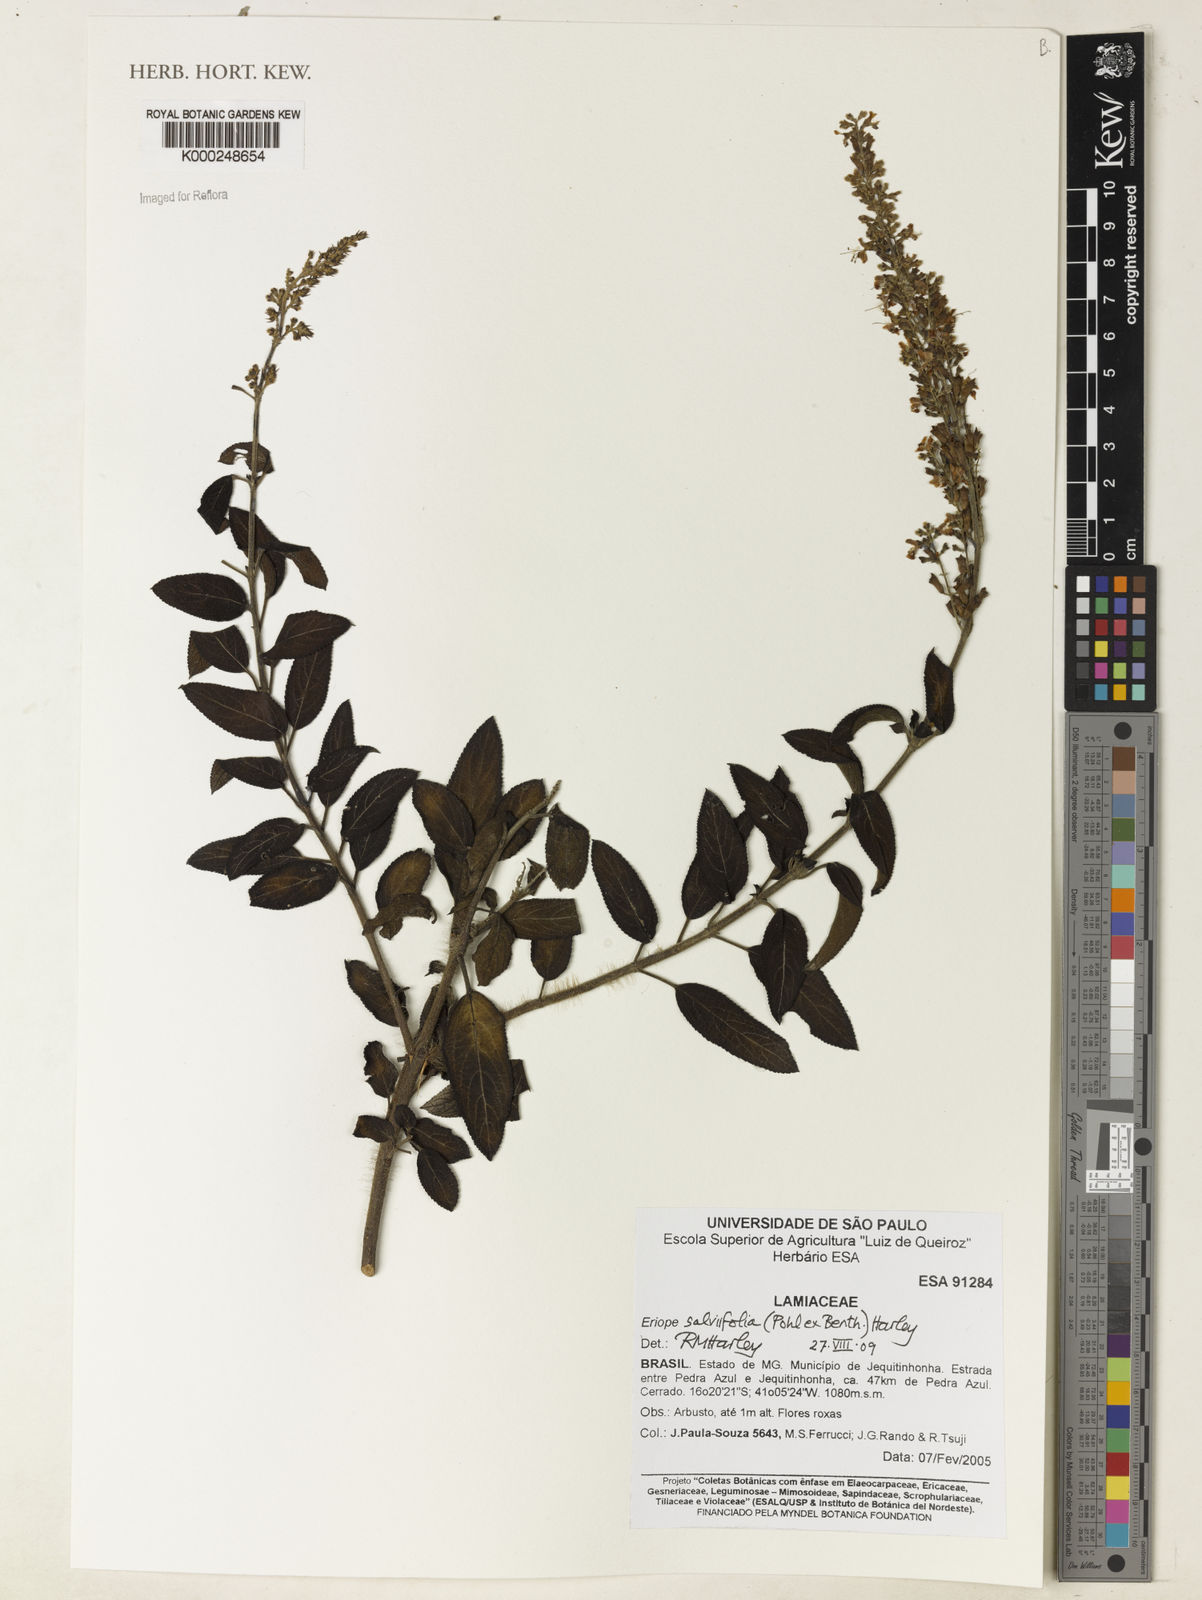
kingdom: Plantae
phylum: Tracheophyta
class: Magnoliopsida
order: Lamiales
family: Lamiaceae
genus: Eriope
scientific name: Eriope salviifolia
